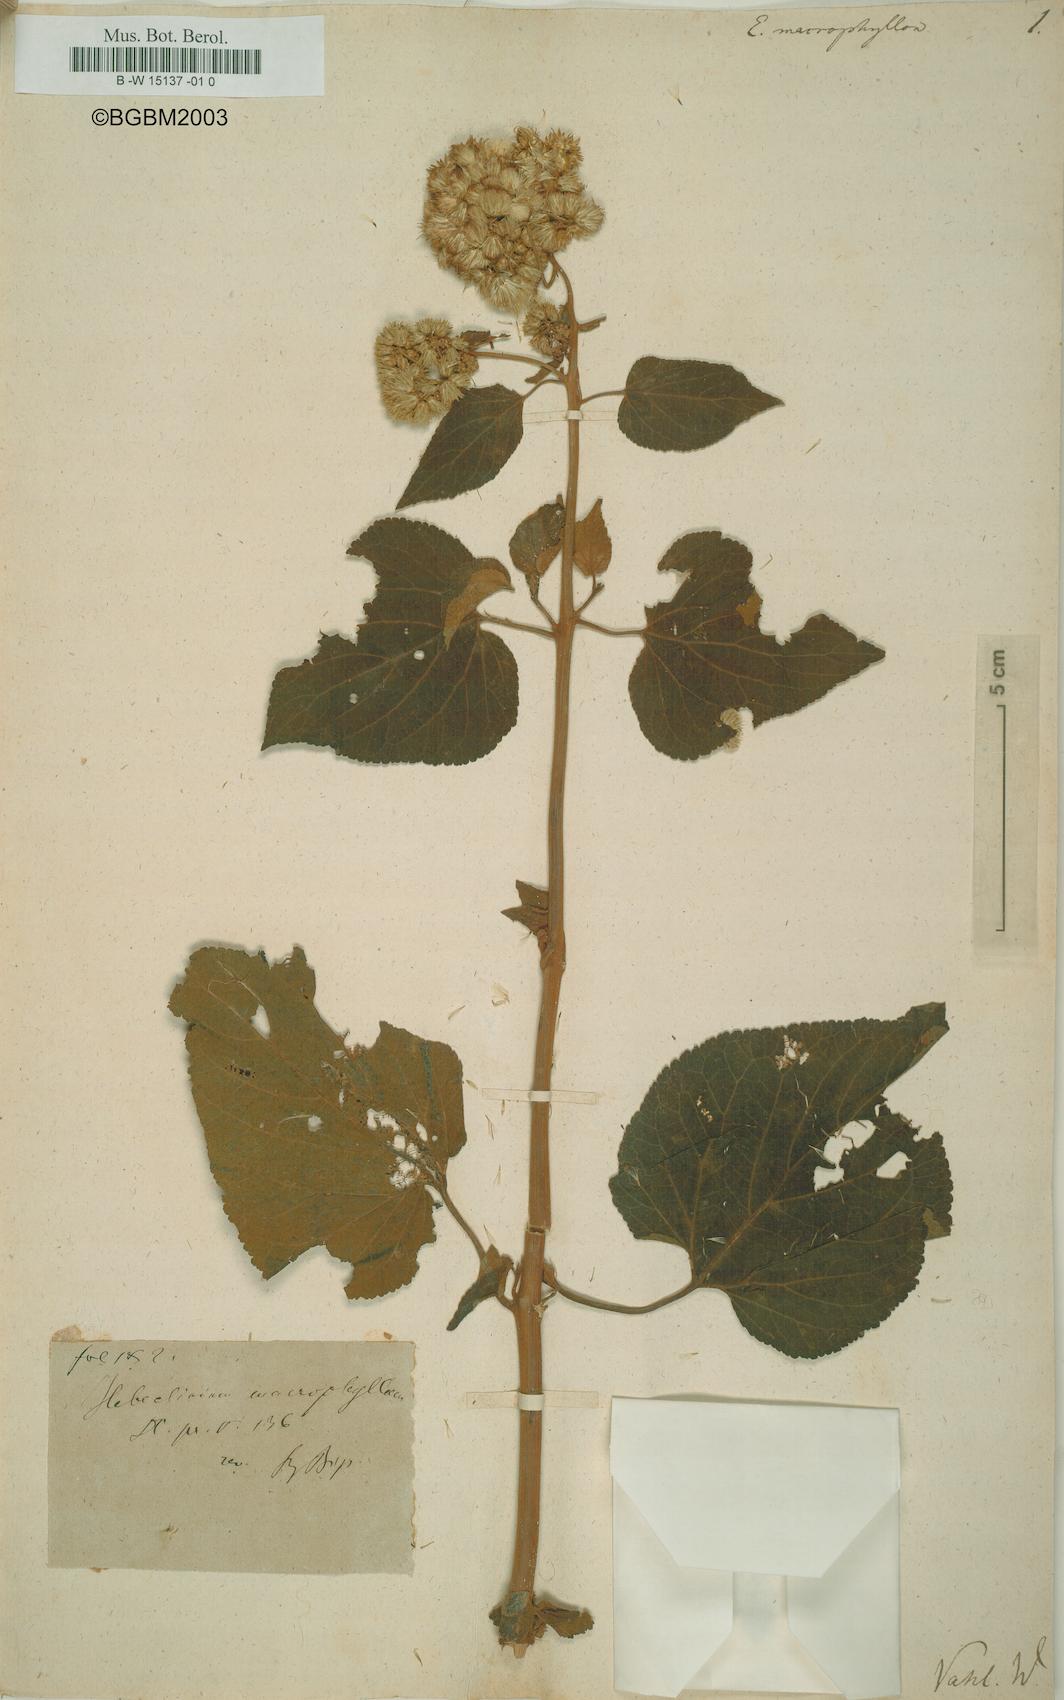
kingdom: Plantae
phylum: Tracheophyta
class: Magnoliopsida
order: Asterales
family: Asteraceae
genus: Hebeclinium
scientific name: Hebeclinium macrophyllum
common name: Largeleaf thoroughwort
